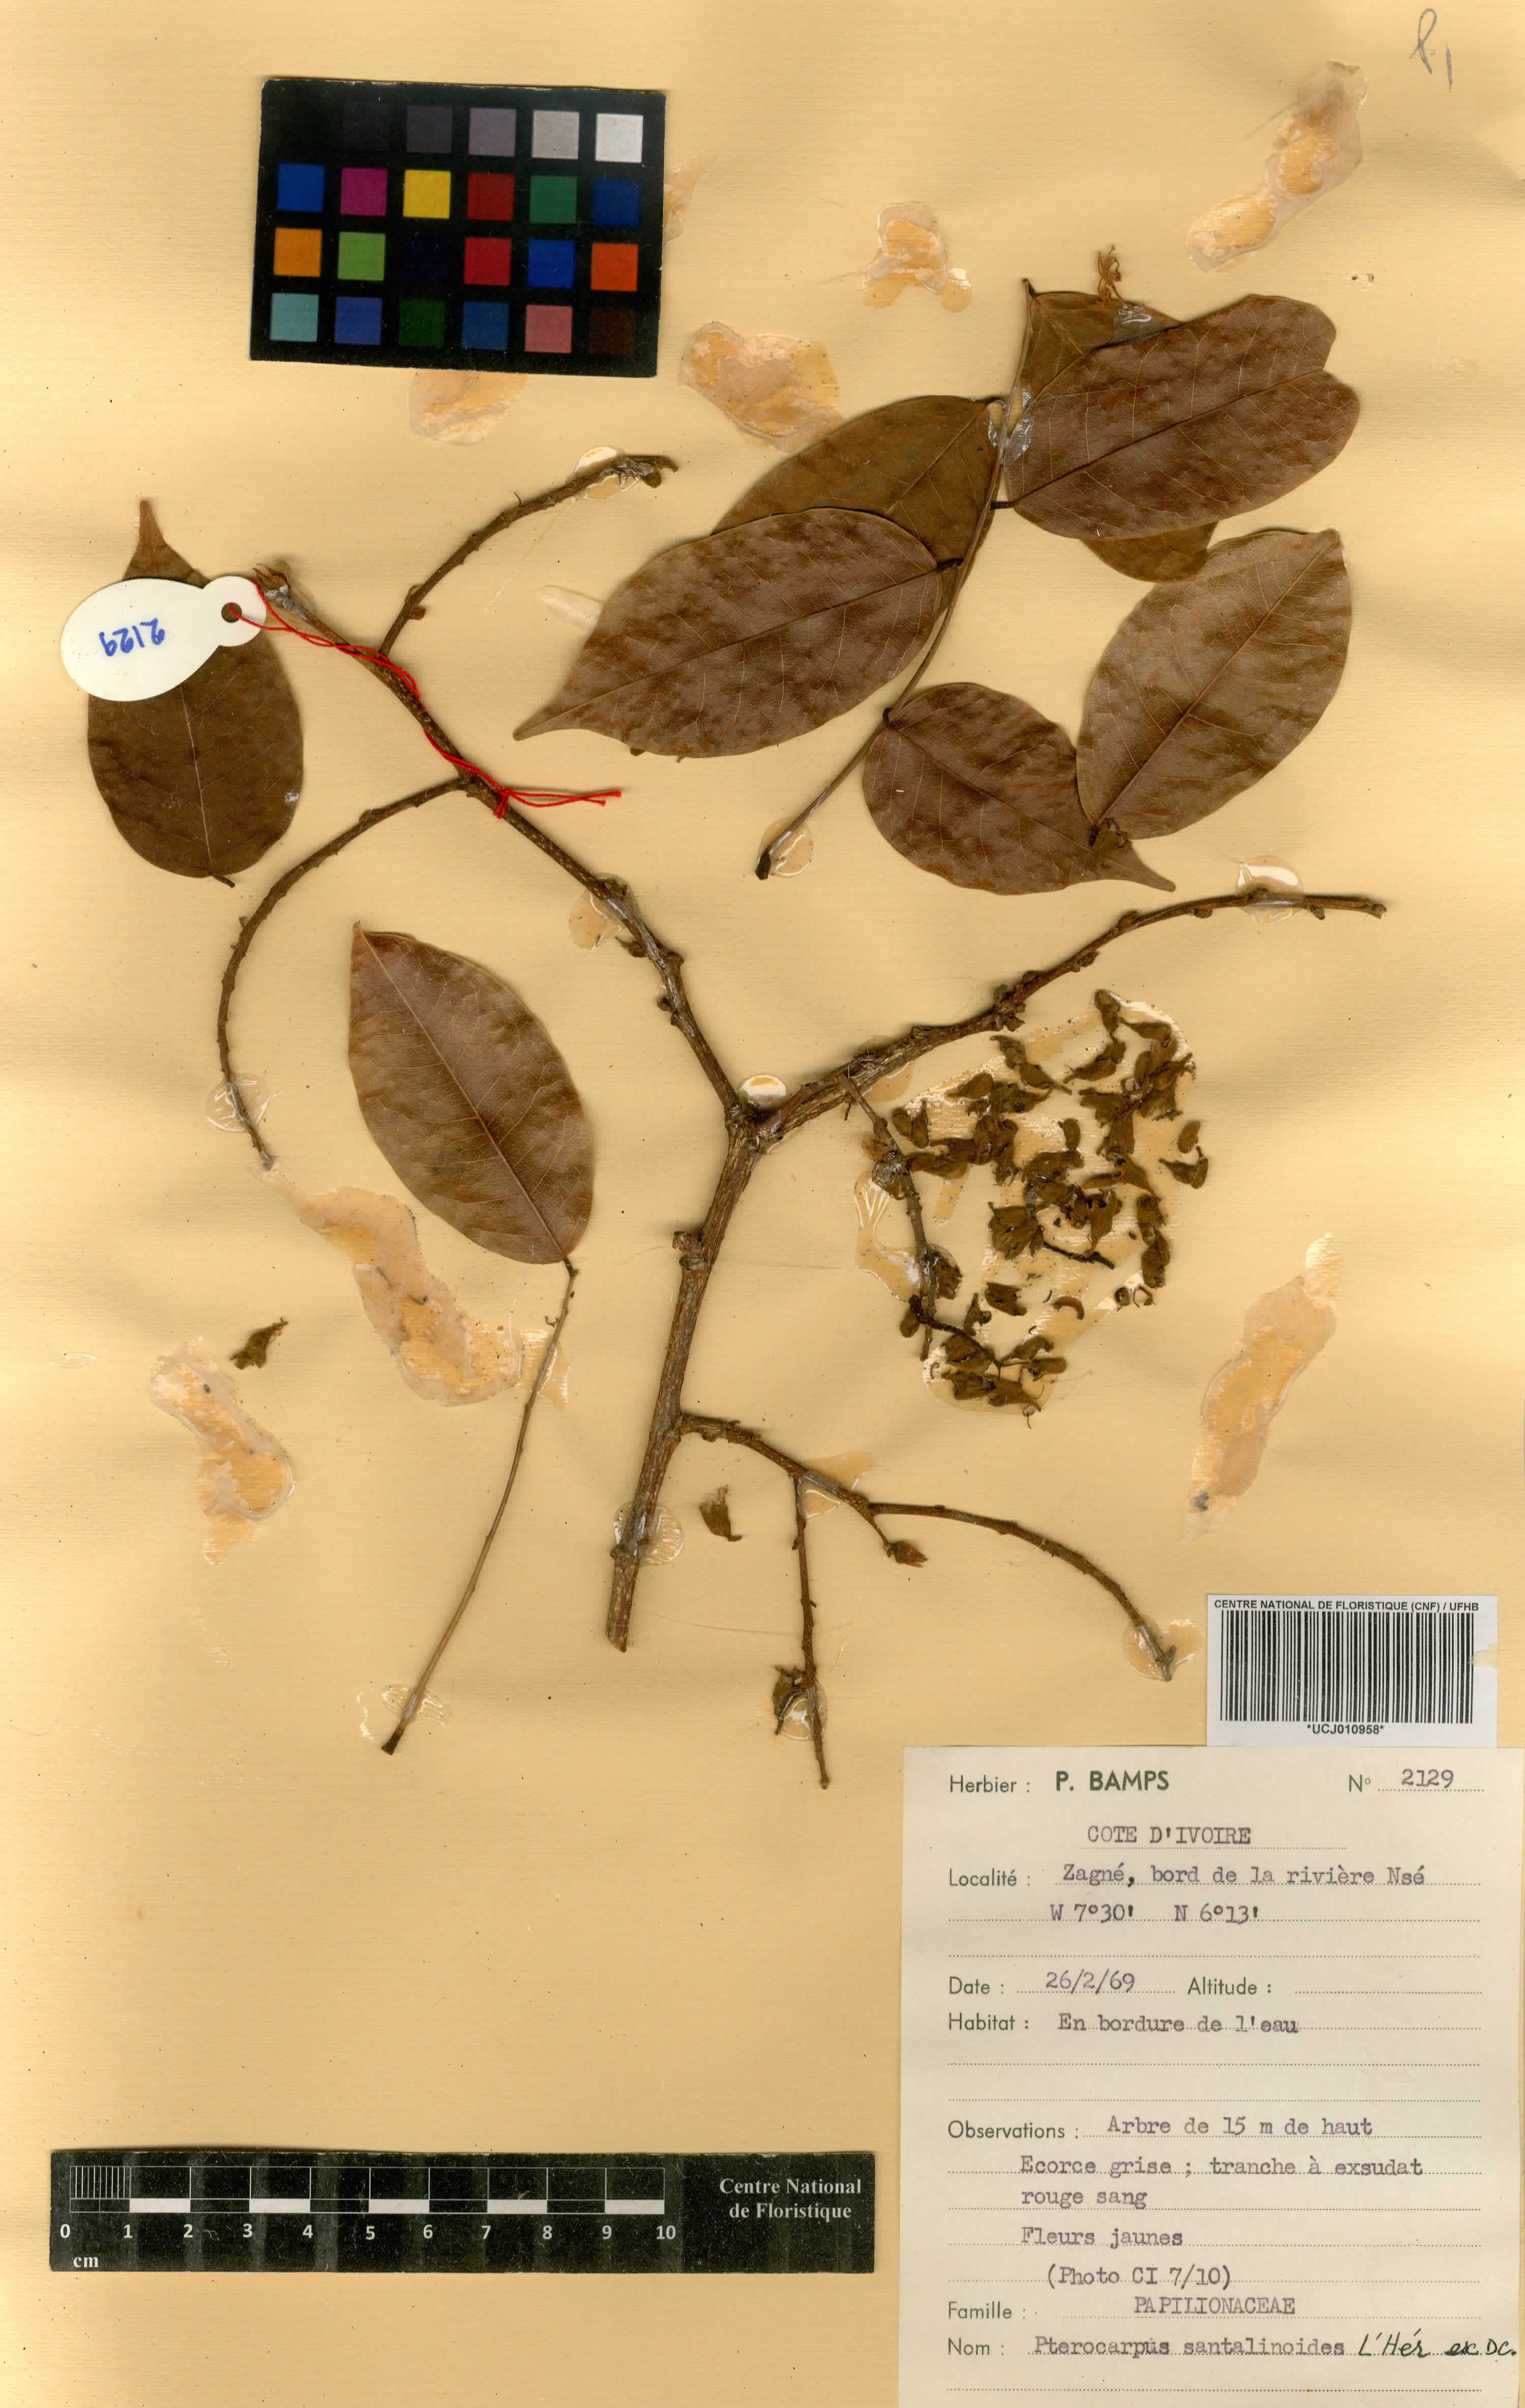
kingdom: Plantae
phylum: Tracheophyta
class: Magnoliopsida
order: Fabales
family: Fabaceae
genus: Pterocarpus
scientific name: Pterocarpus santalinoides
